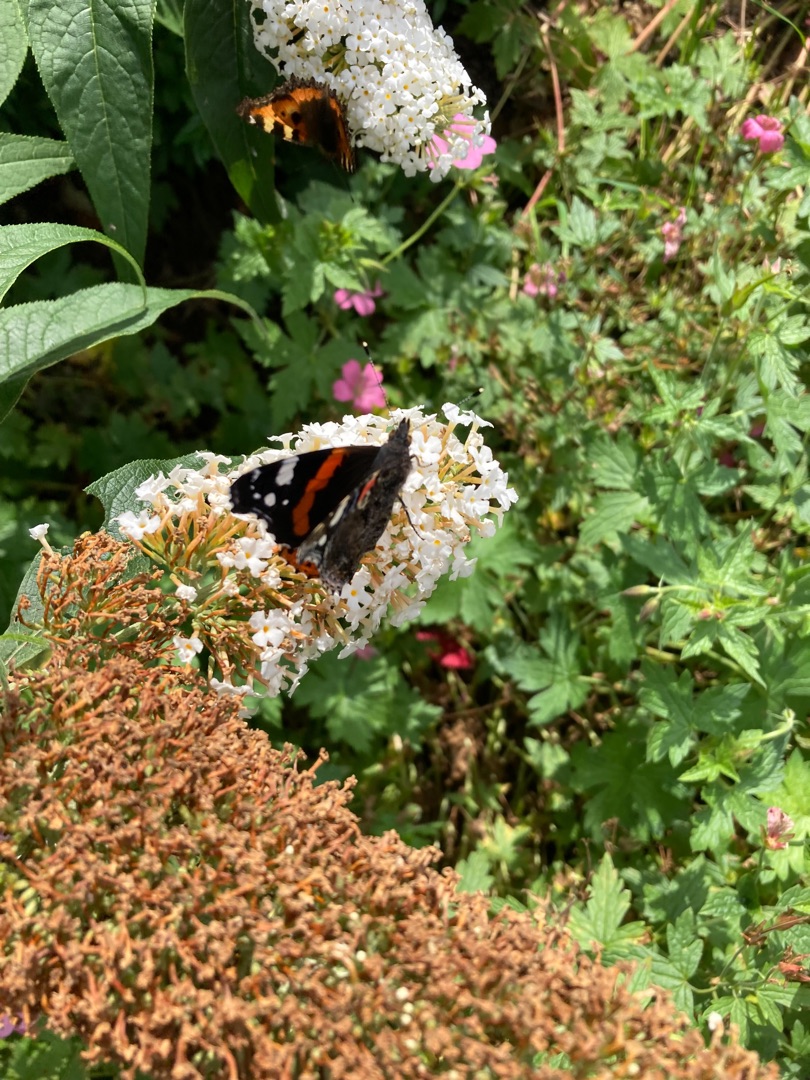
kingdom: Animalia
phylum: Arthropoda
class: Insecta
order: Lepidoptera
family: Nymphalidae
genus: Vanessa
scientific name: Vanessa atalanta
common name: Admiral
